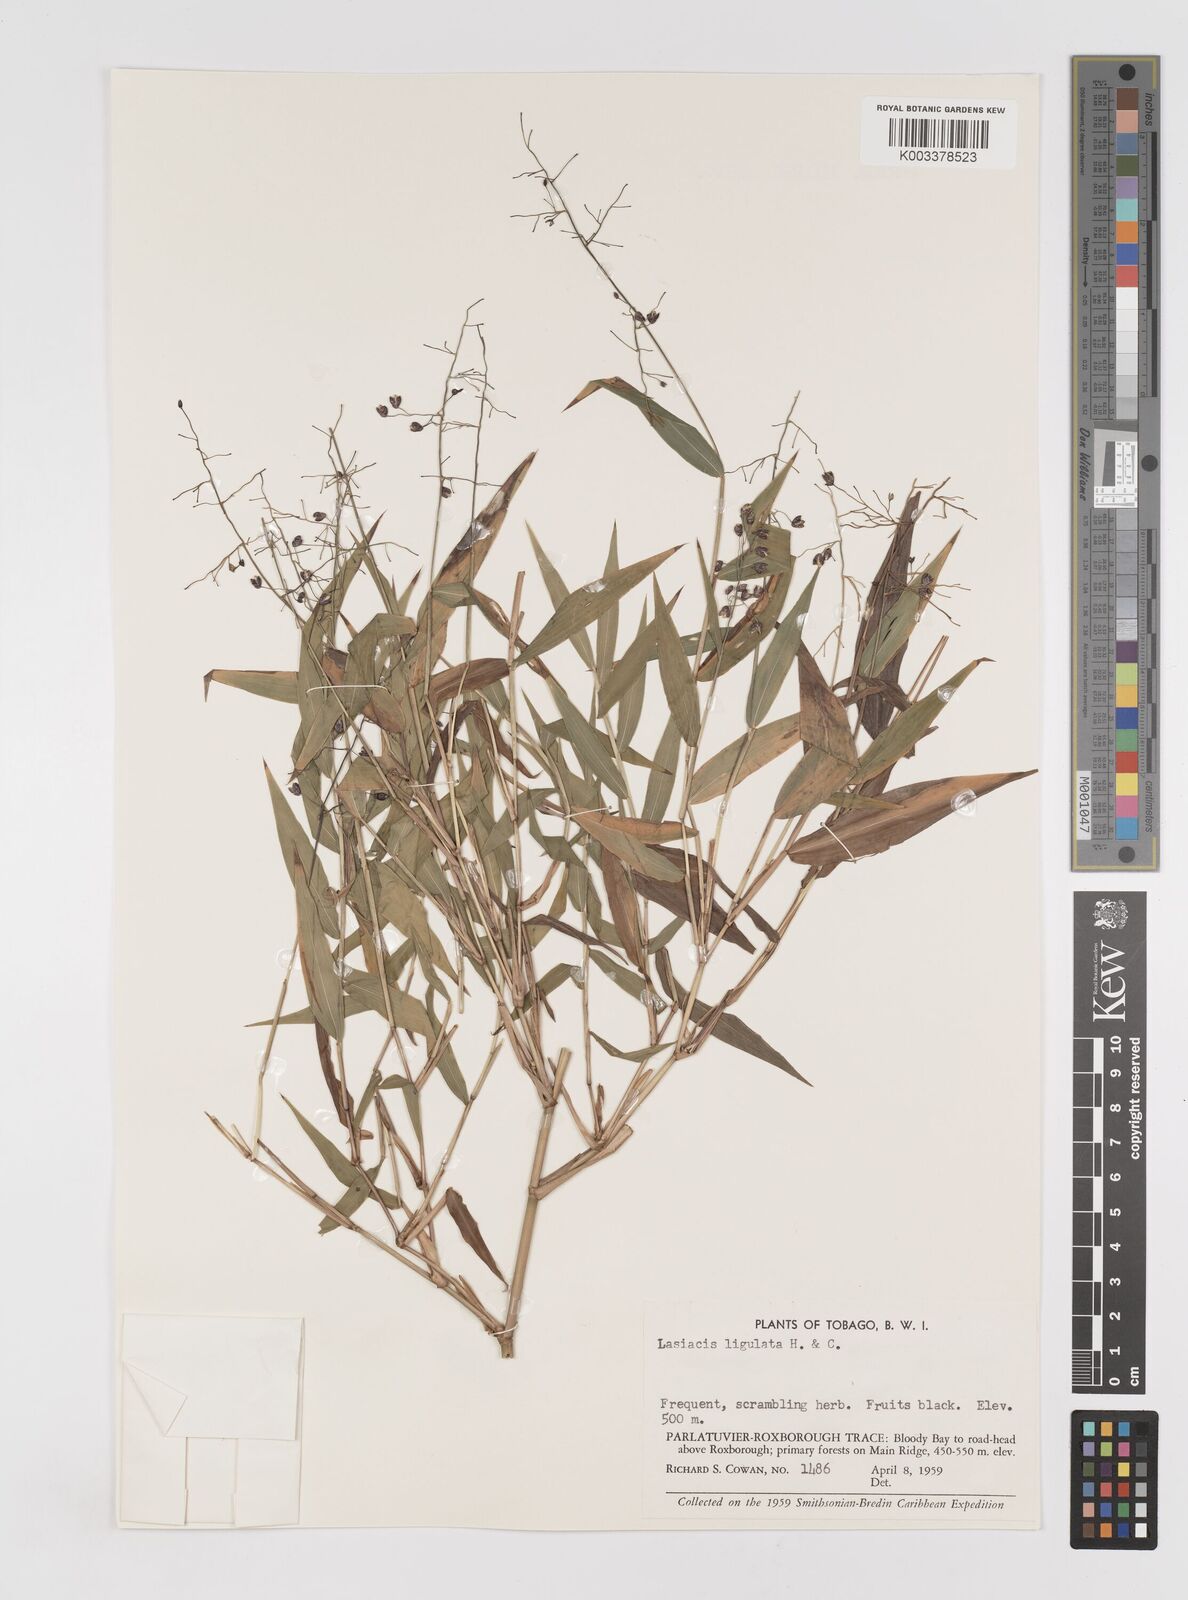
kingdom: Plantae
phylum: Tracheophyta
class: Liliopsida
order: Poales
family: Poaceae
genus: Lasiacis
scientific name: Lasiacis ligulata
